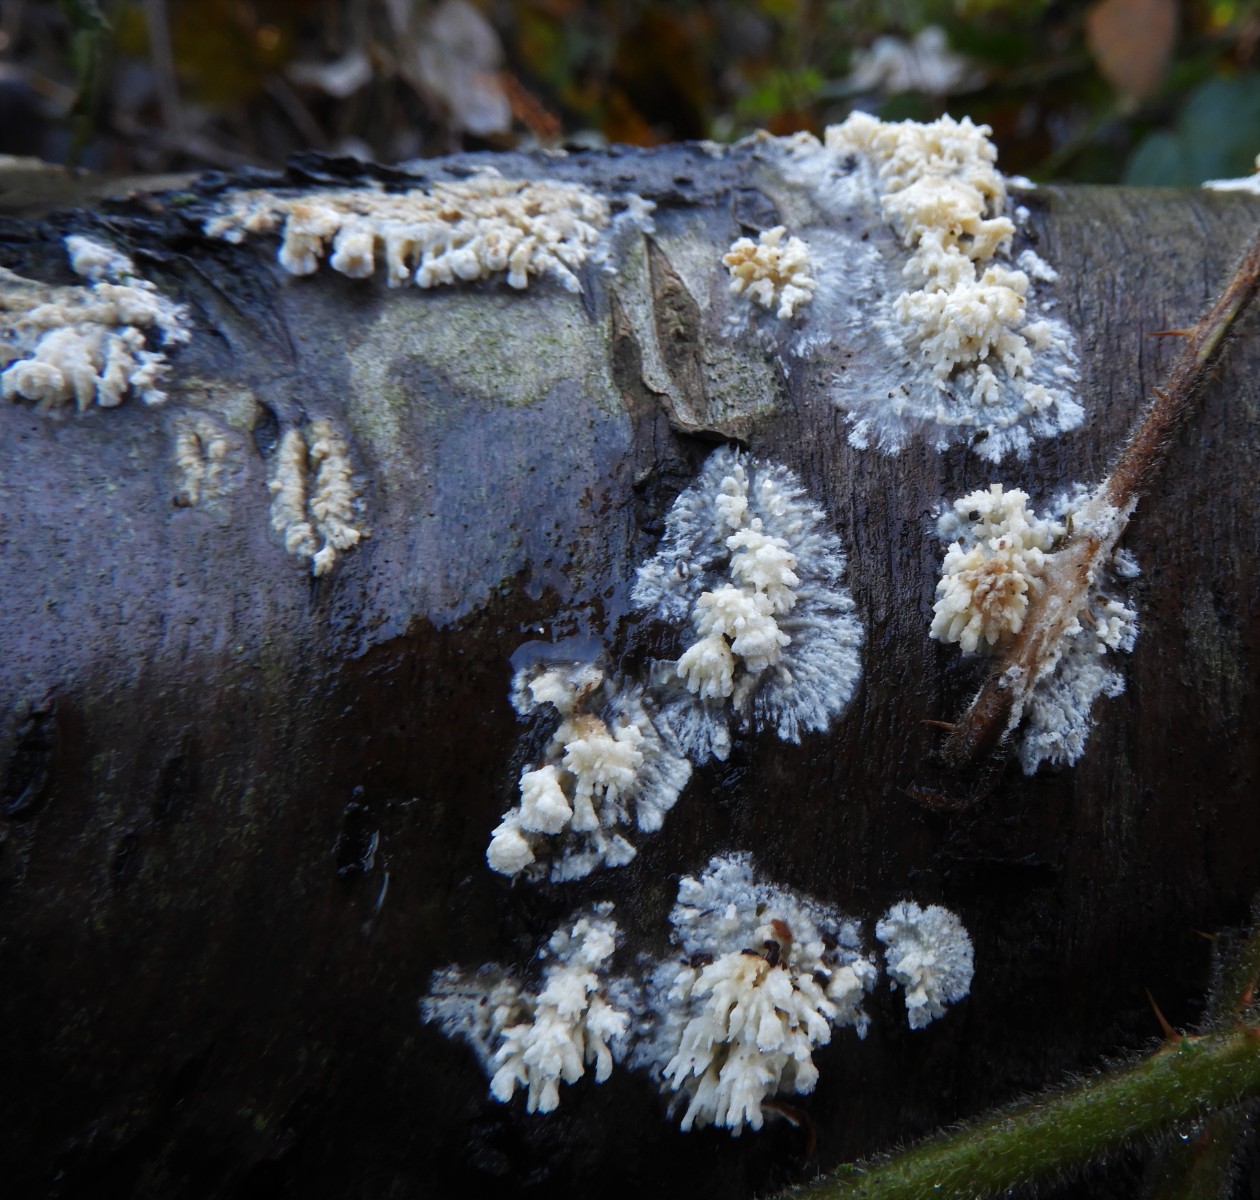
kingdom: Fungi
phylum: Basidiomycota
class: Agaricomycetes
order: Hymenochaetales
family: Schizoporaceae
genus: Xylodon
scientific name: Xylodon radula
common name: grovtandet kalkskind
